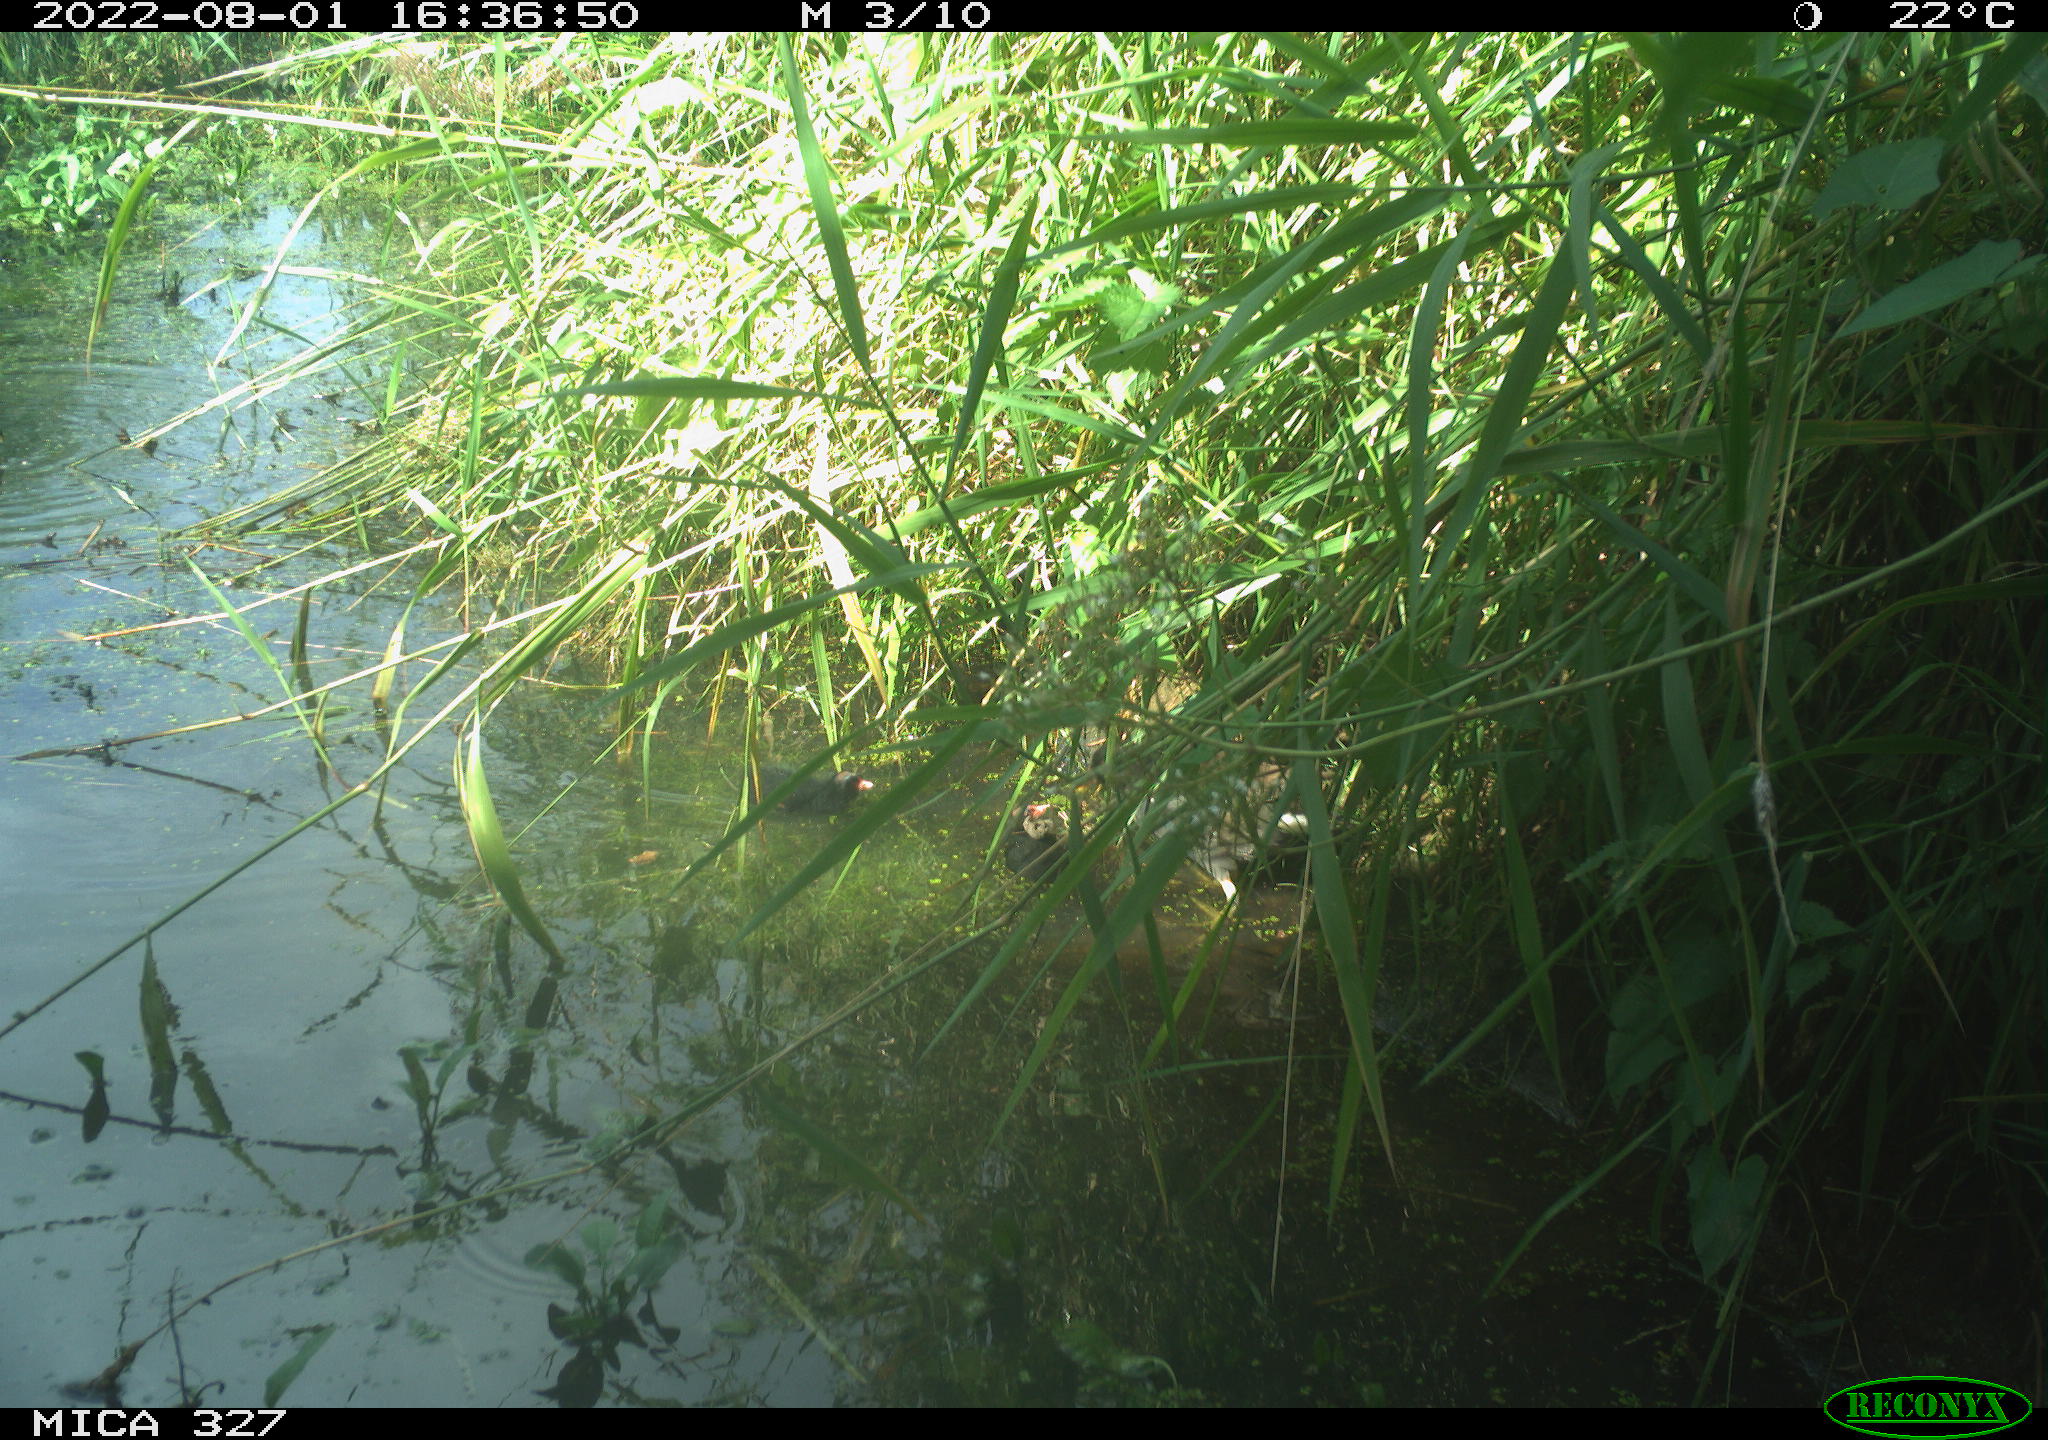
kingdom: Animalia
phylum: Chordata
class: Aves
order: Gruiformes
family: Rallidae
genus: Gallinula
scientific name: Gallinula chloropus
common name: Common moorhen
